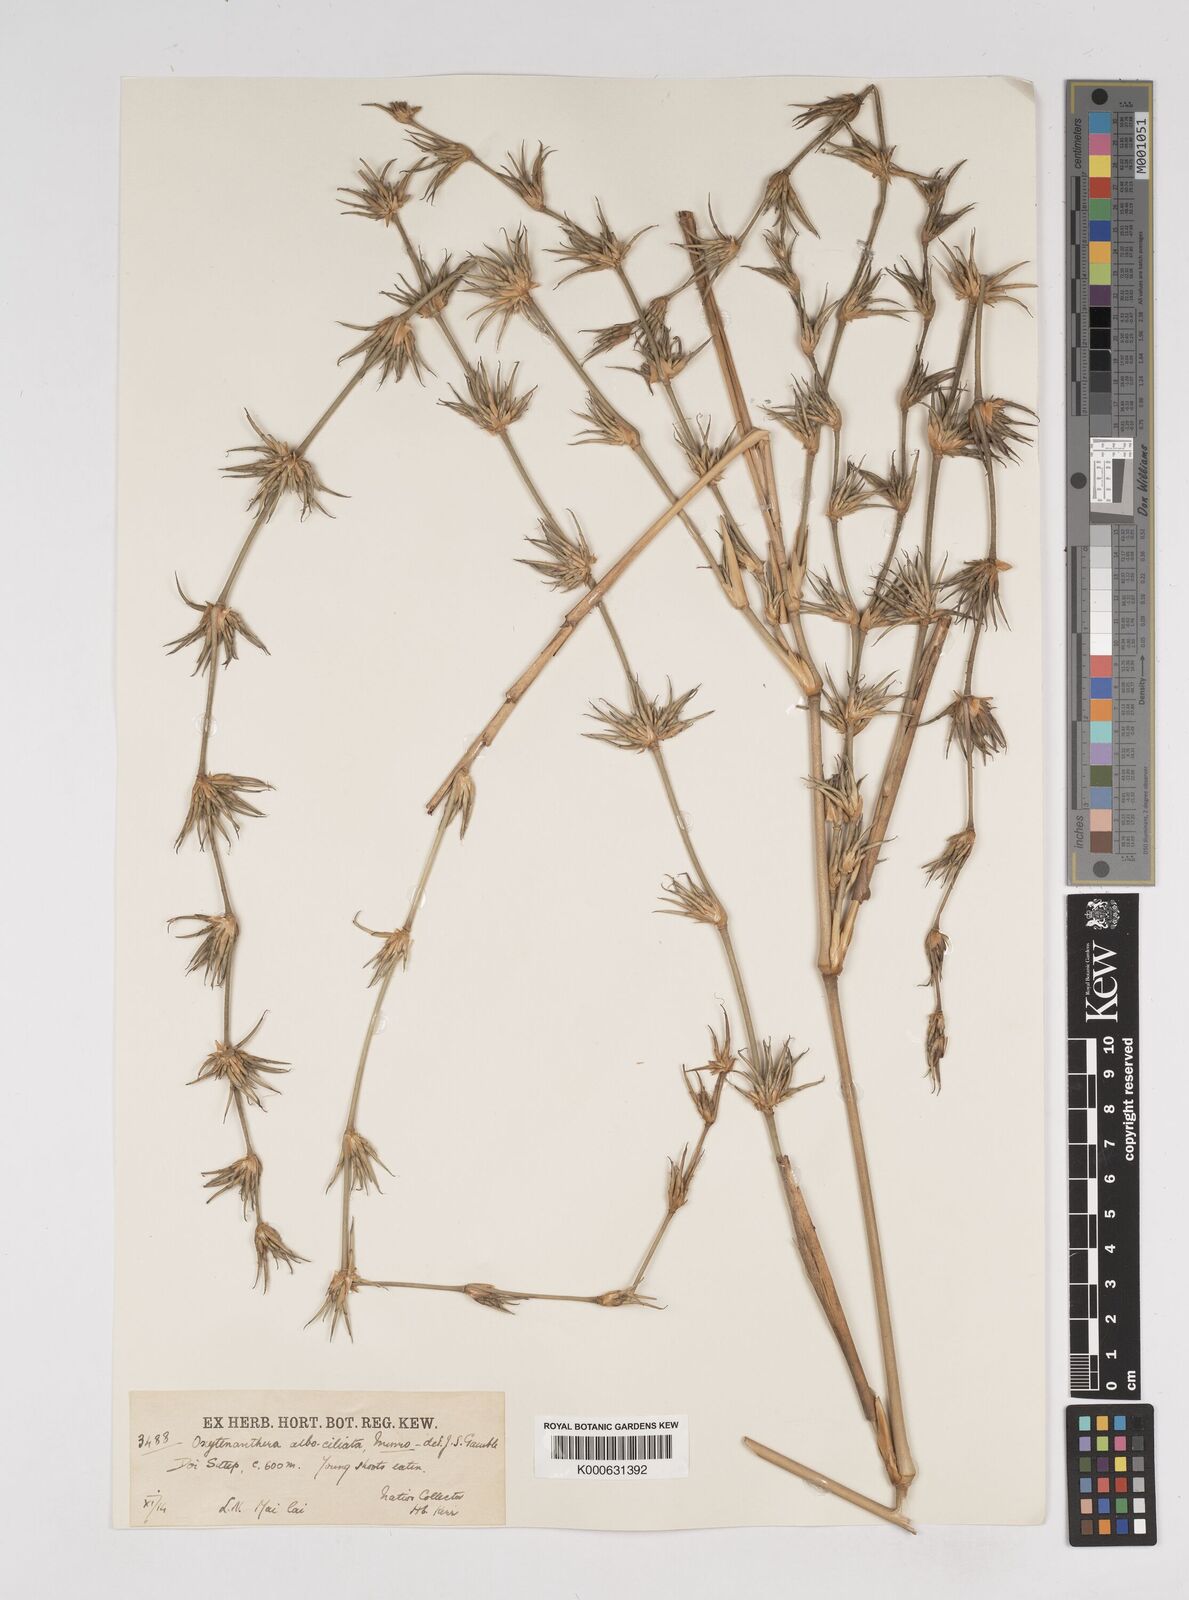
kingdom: Plantae
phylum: Tracheophyta
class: Liliopsida
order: Poales
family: Poaceae
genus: Dendrocalamus
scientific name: Dendrocalamus
